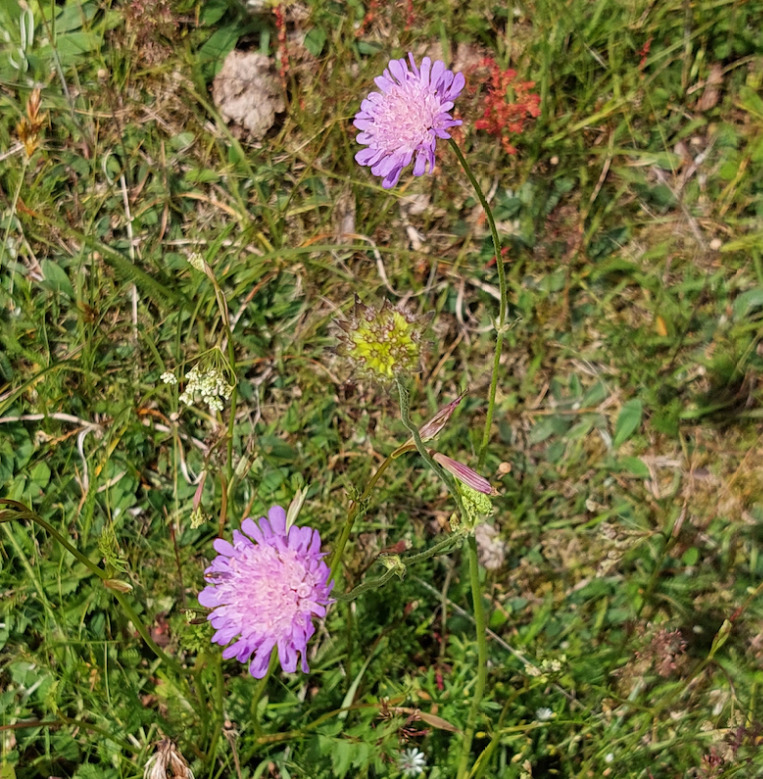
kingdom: Plantae
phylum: Tracheophyta
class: Magnoliopsida
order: Dipsacales
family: Caprifoliaceae
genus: Knautia
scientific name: Knautia arvensis
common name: Blåhat
